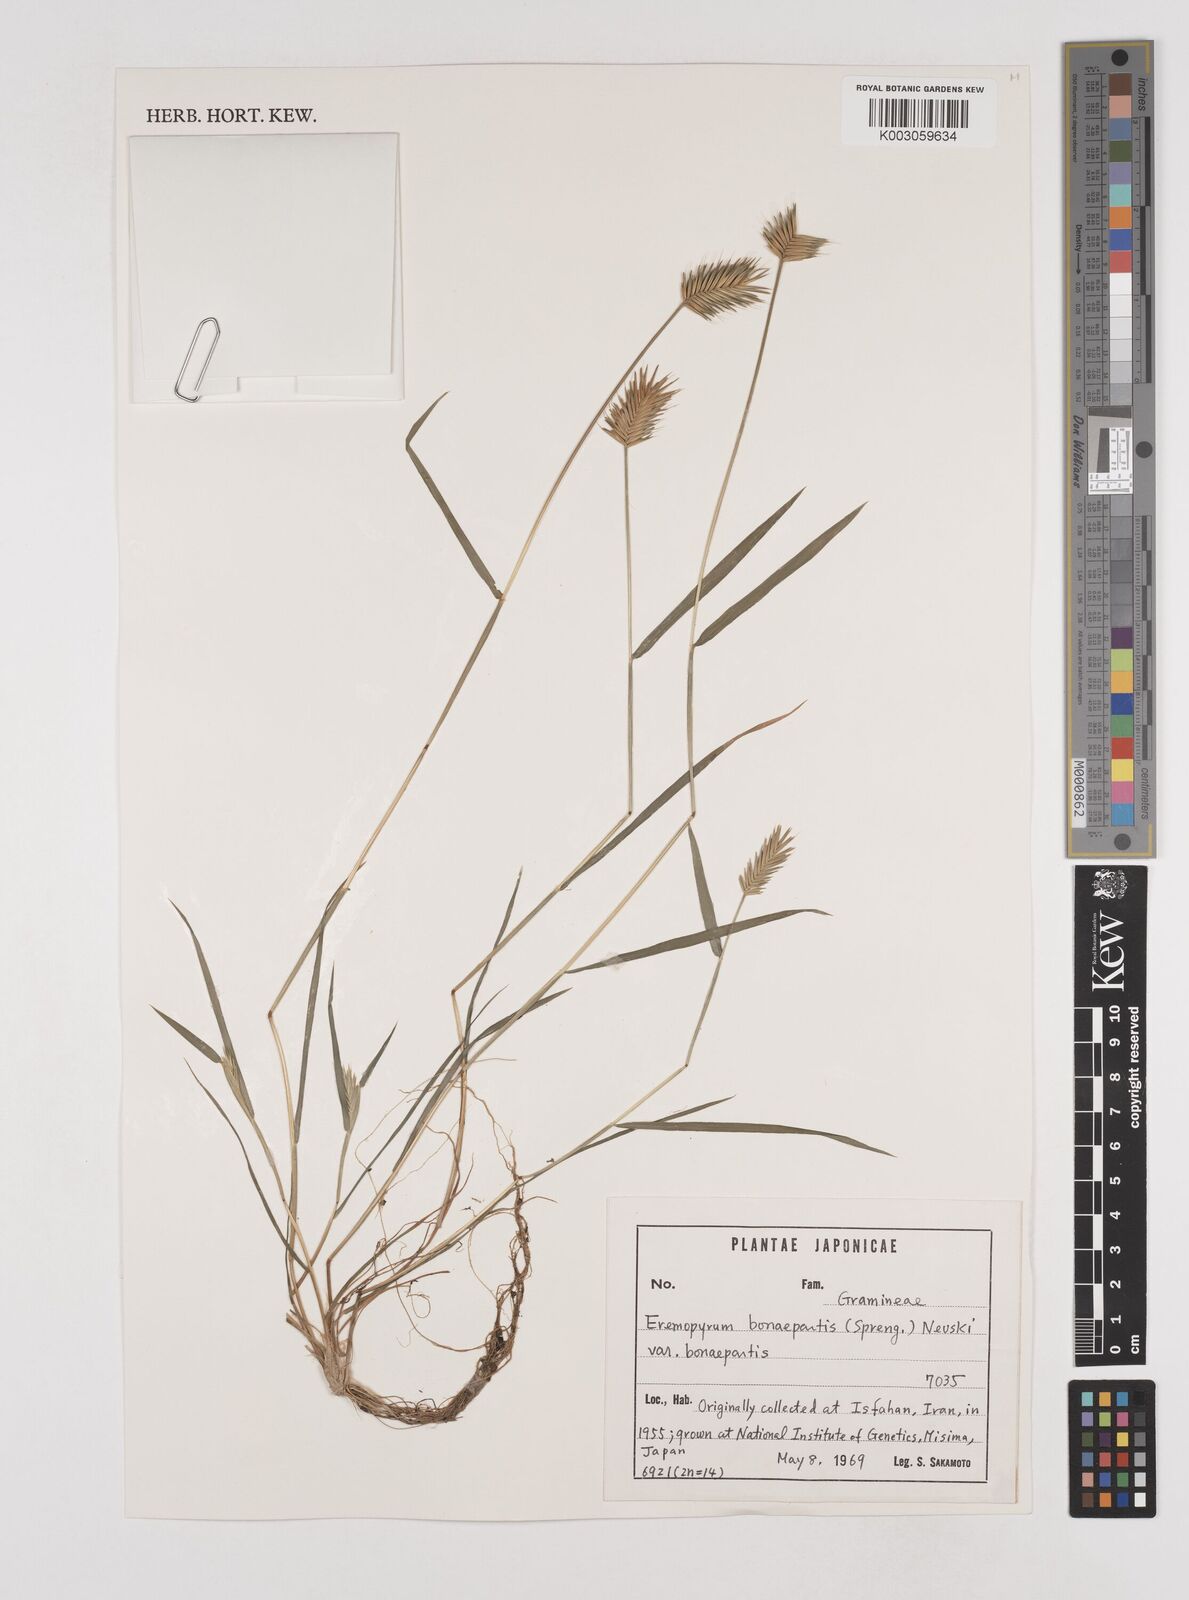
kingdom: Plantae
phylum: Tracheophyta
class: Liliopsida
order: Poales
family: Poaceae
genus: Eremopyrum
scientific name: Eremopyrum bonaepartis
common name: Tapertip false wheatgrass
